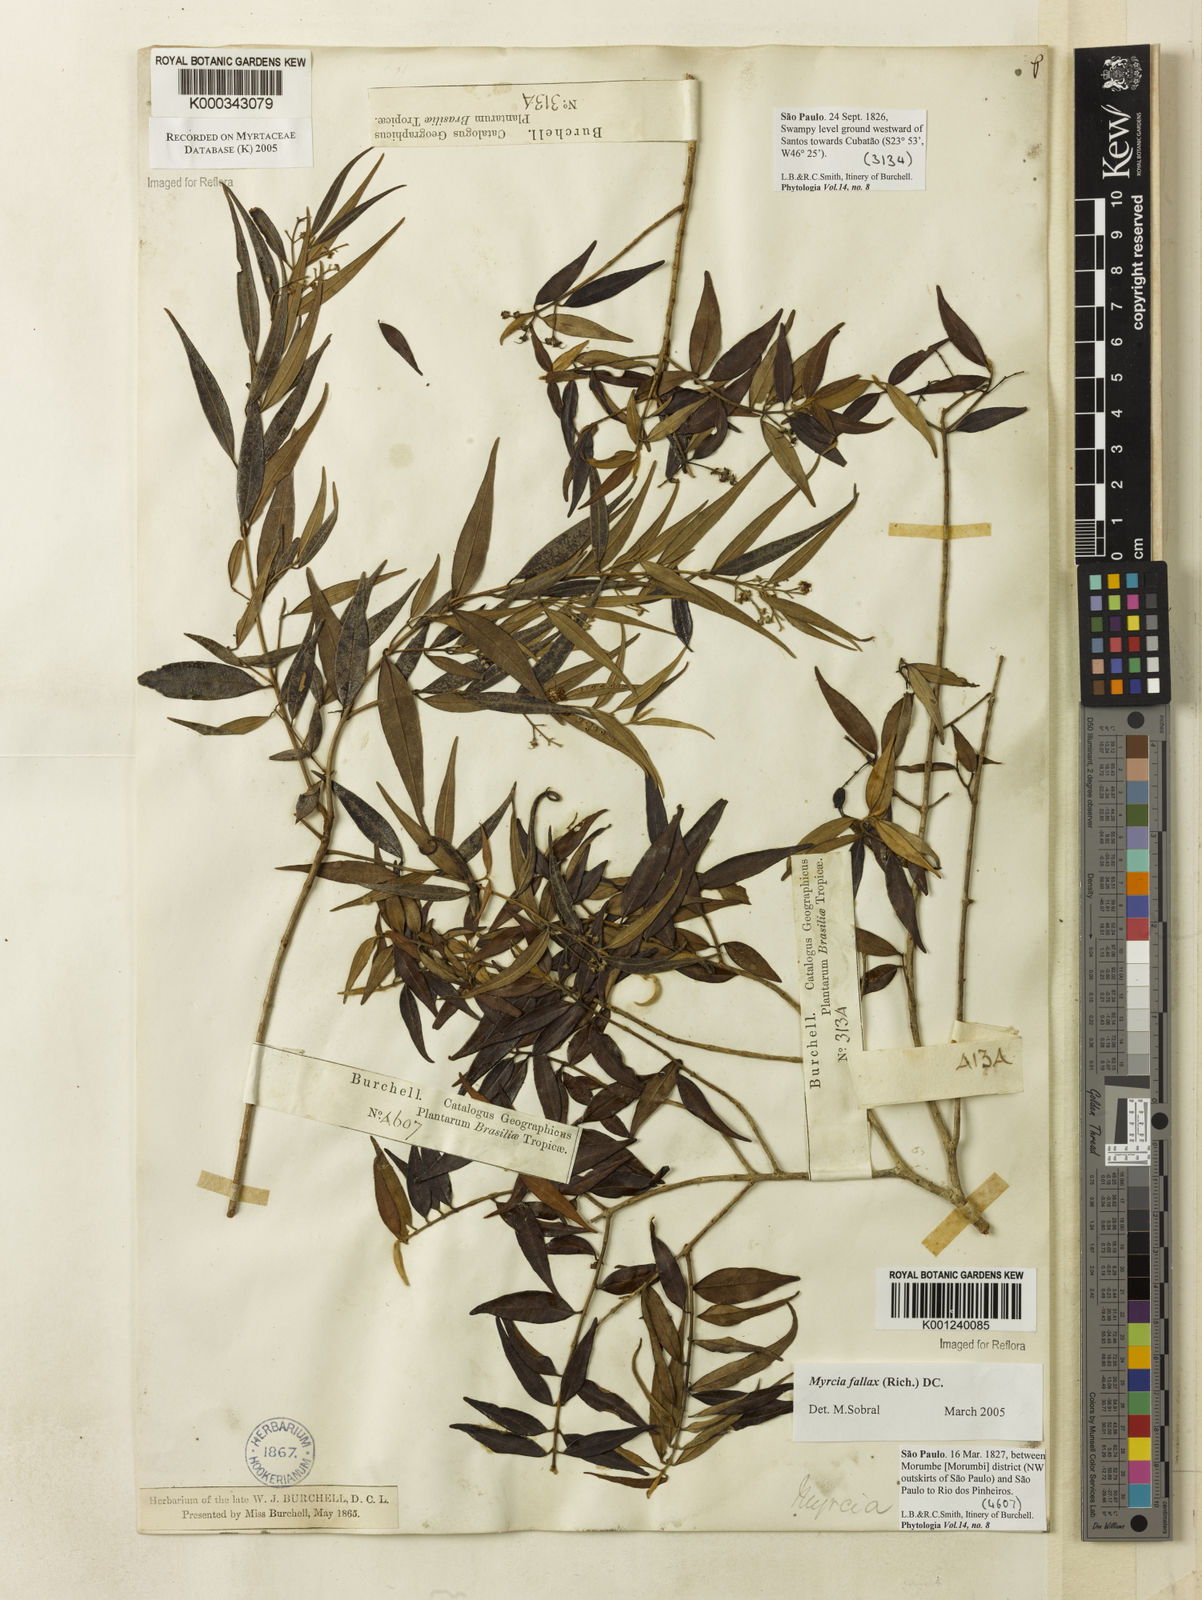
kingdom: Plantae
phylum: Tracheophyta
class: Magnoliopsida
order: Myrtales
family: Myrtaceae
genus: Myrcia
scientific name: Myrcia splendens
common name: Surinam cherry
